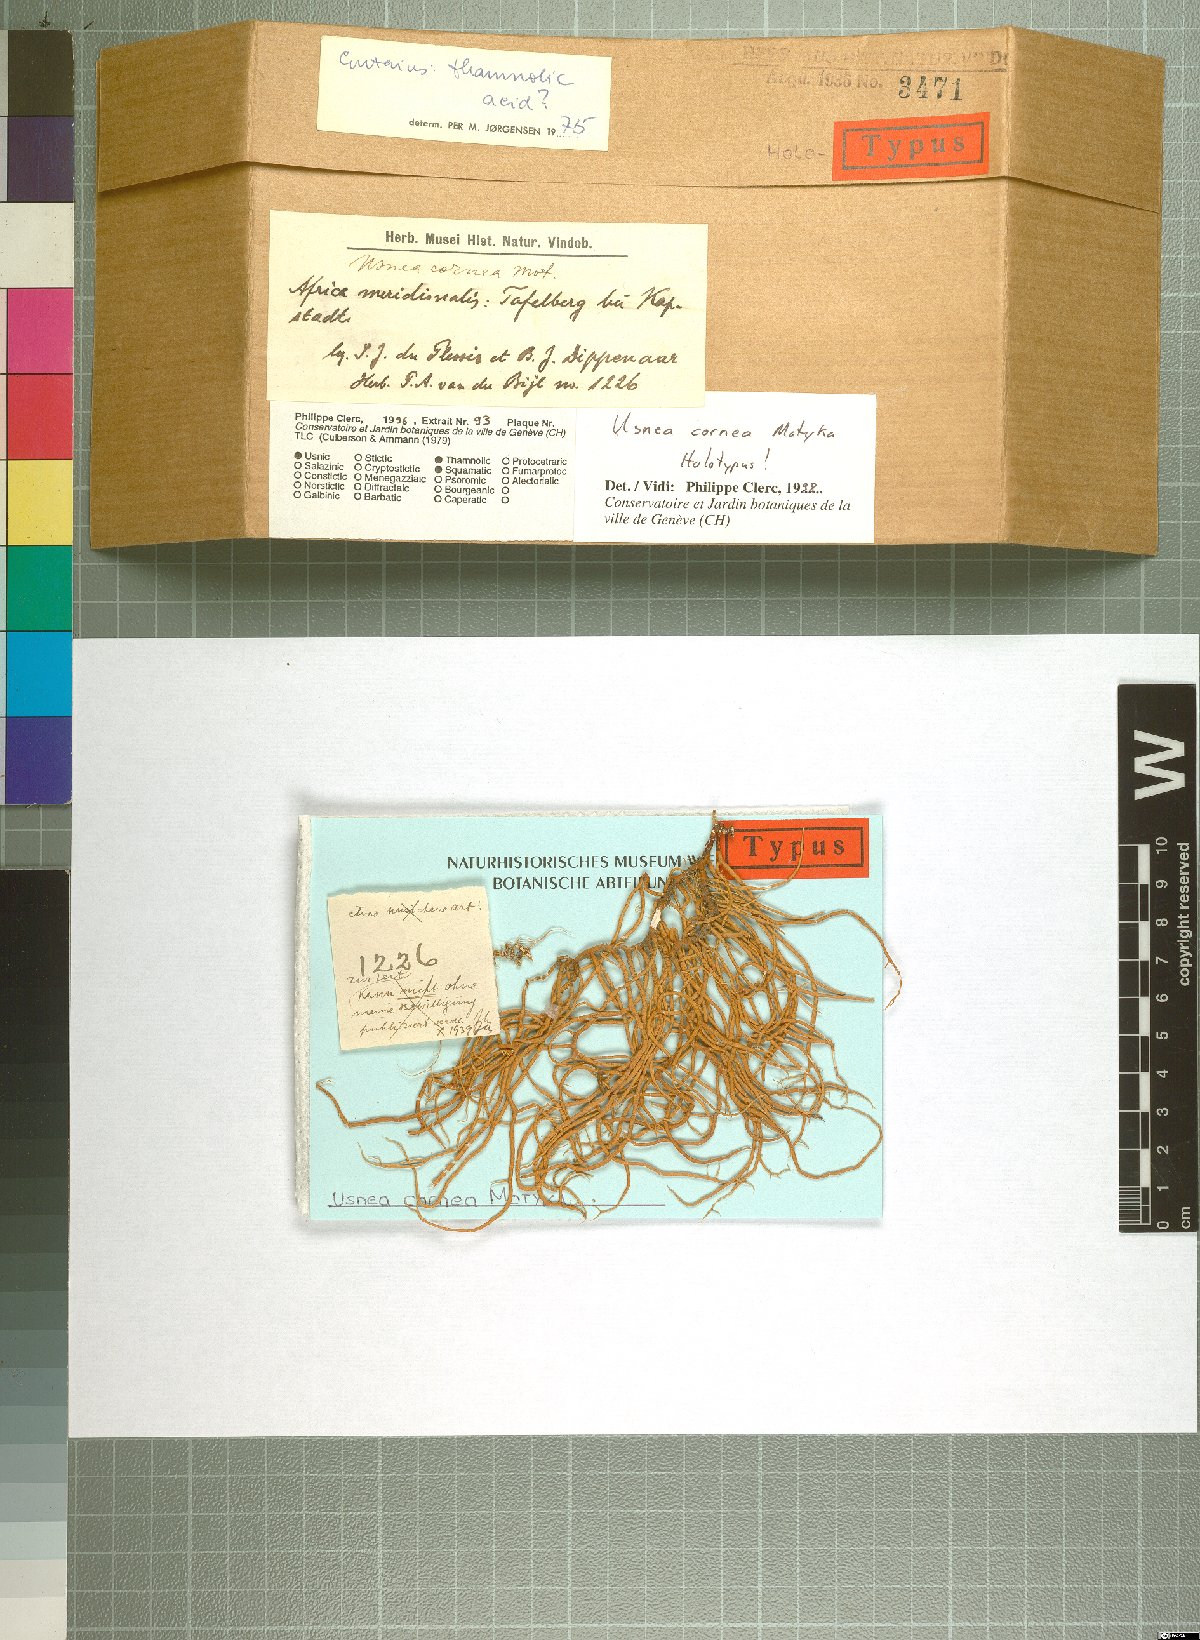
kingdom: Fungi
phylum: Ascomycota
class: Lecanoromycetes
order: Lecanorales
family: Parmeliaceae
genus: Usnea
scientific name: Usnea cornea
